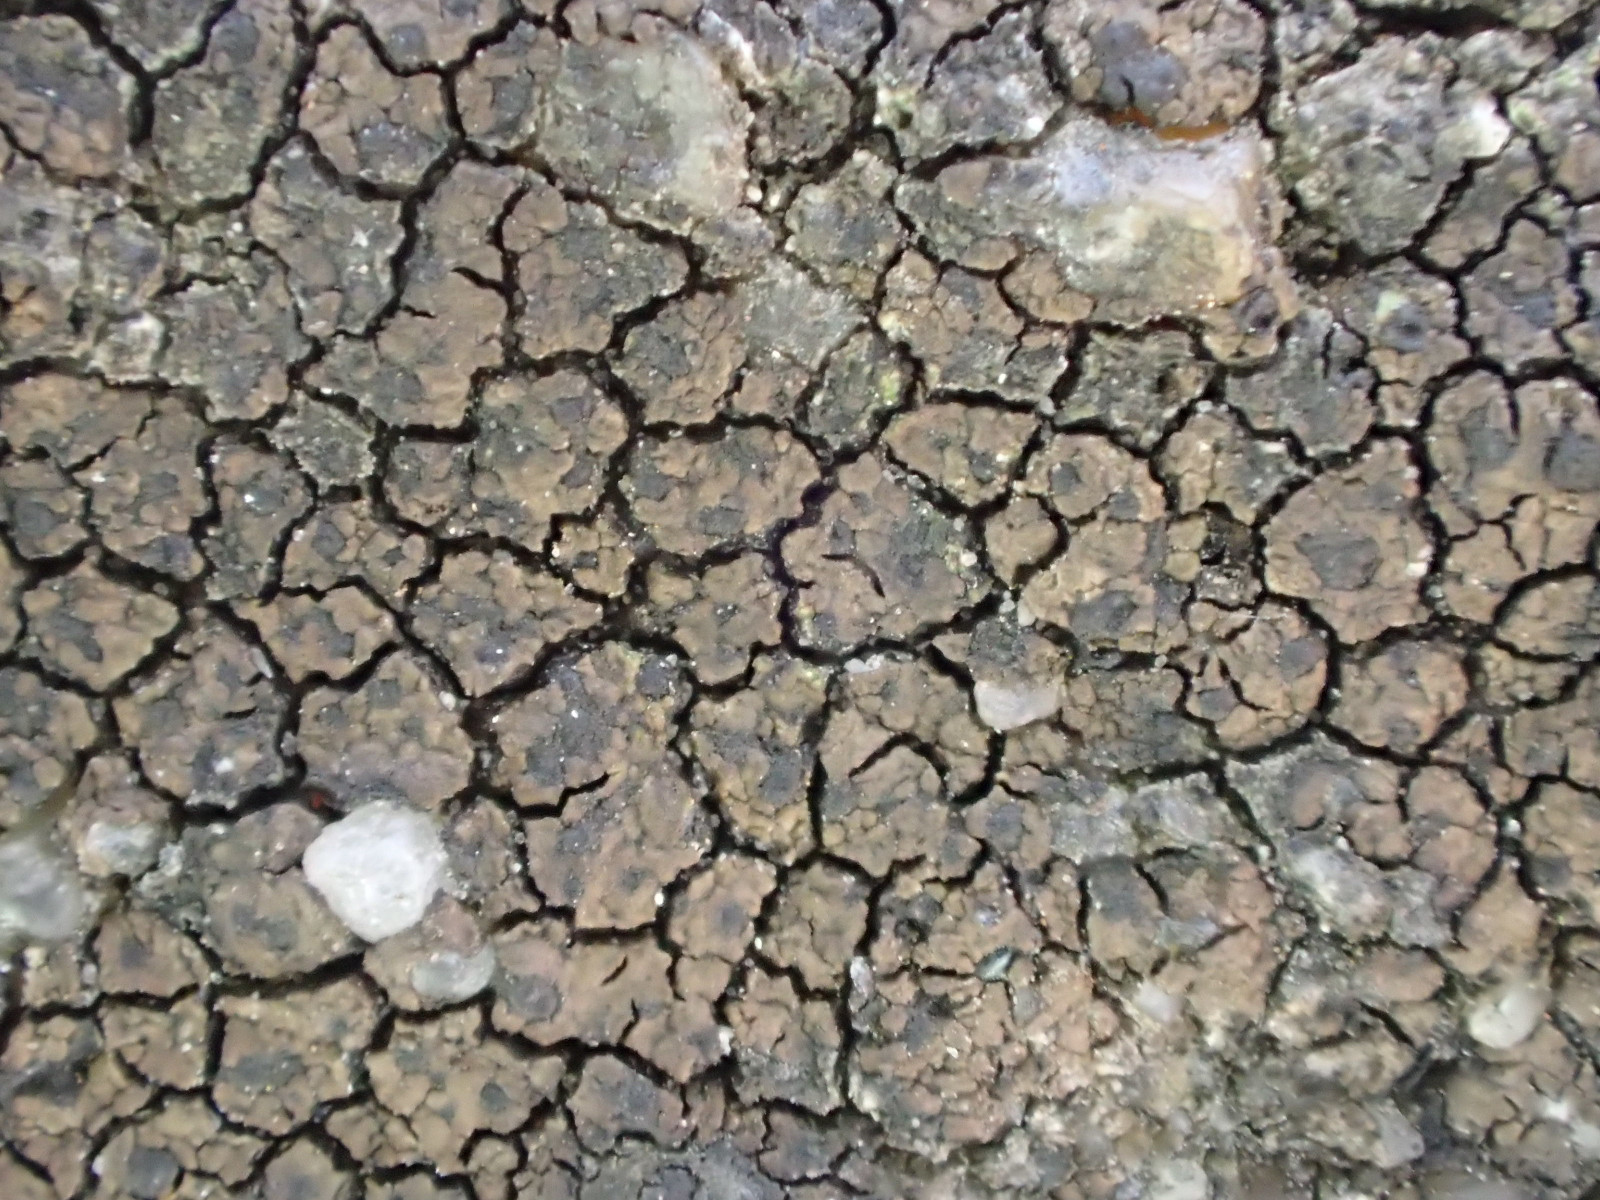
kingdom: Fungi
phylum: Ascomycota
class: Eurotiomycetes
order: Verrucariales
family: Verrucariaceae
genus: Verrucaria
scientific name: Verrucaria nigrescens
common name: sortbrun vortelav
